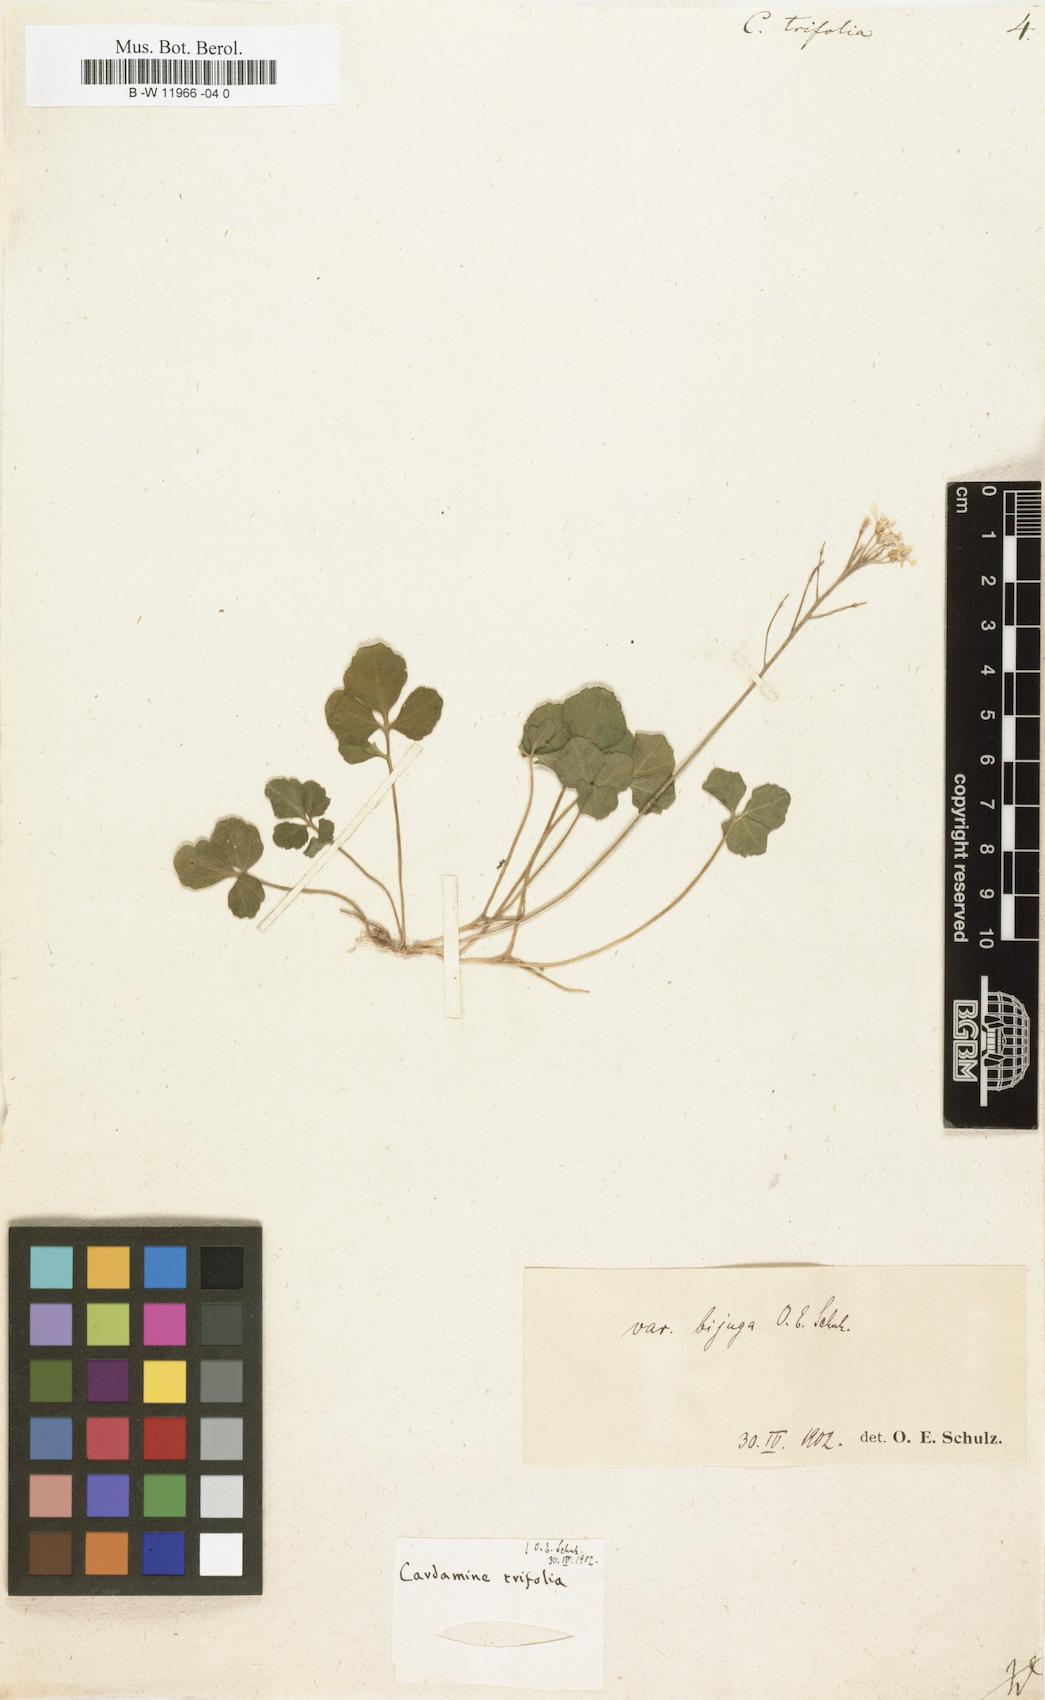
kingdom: Plantae
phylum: Tracheophyta
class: Magnoliopsida
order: Brassicales
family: Brassicaceae
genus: Cardamine
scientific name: Cardamine trifolia
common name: Trefoil cress
